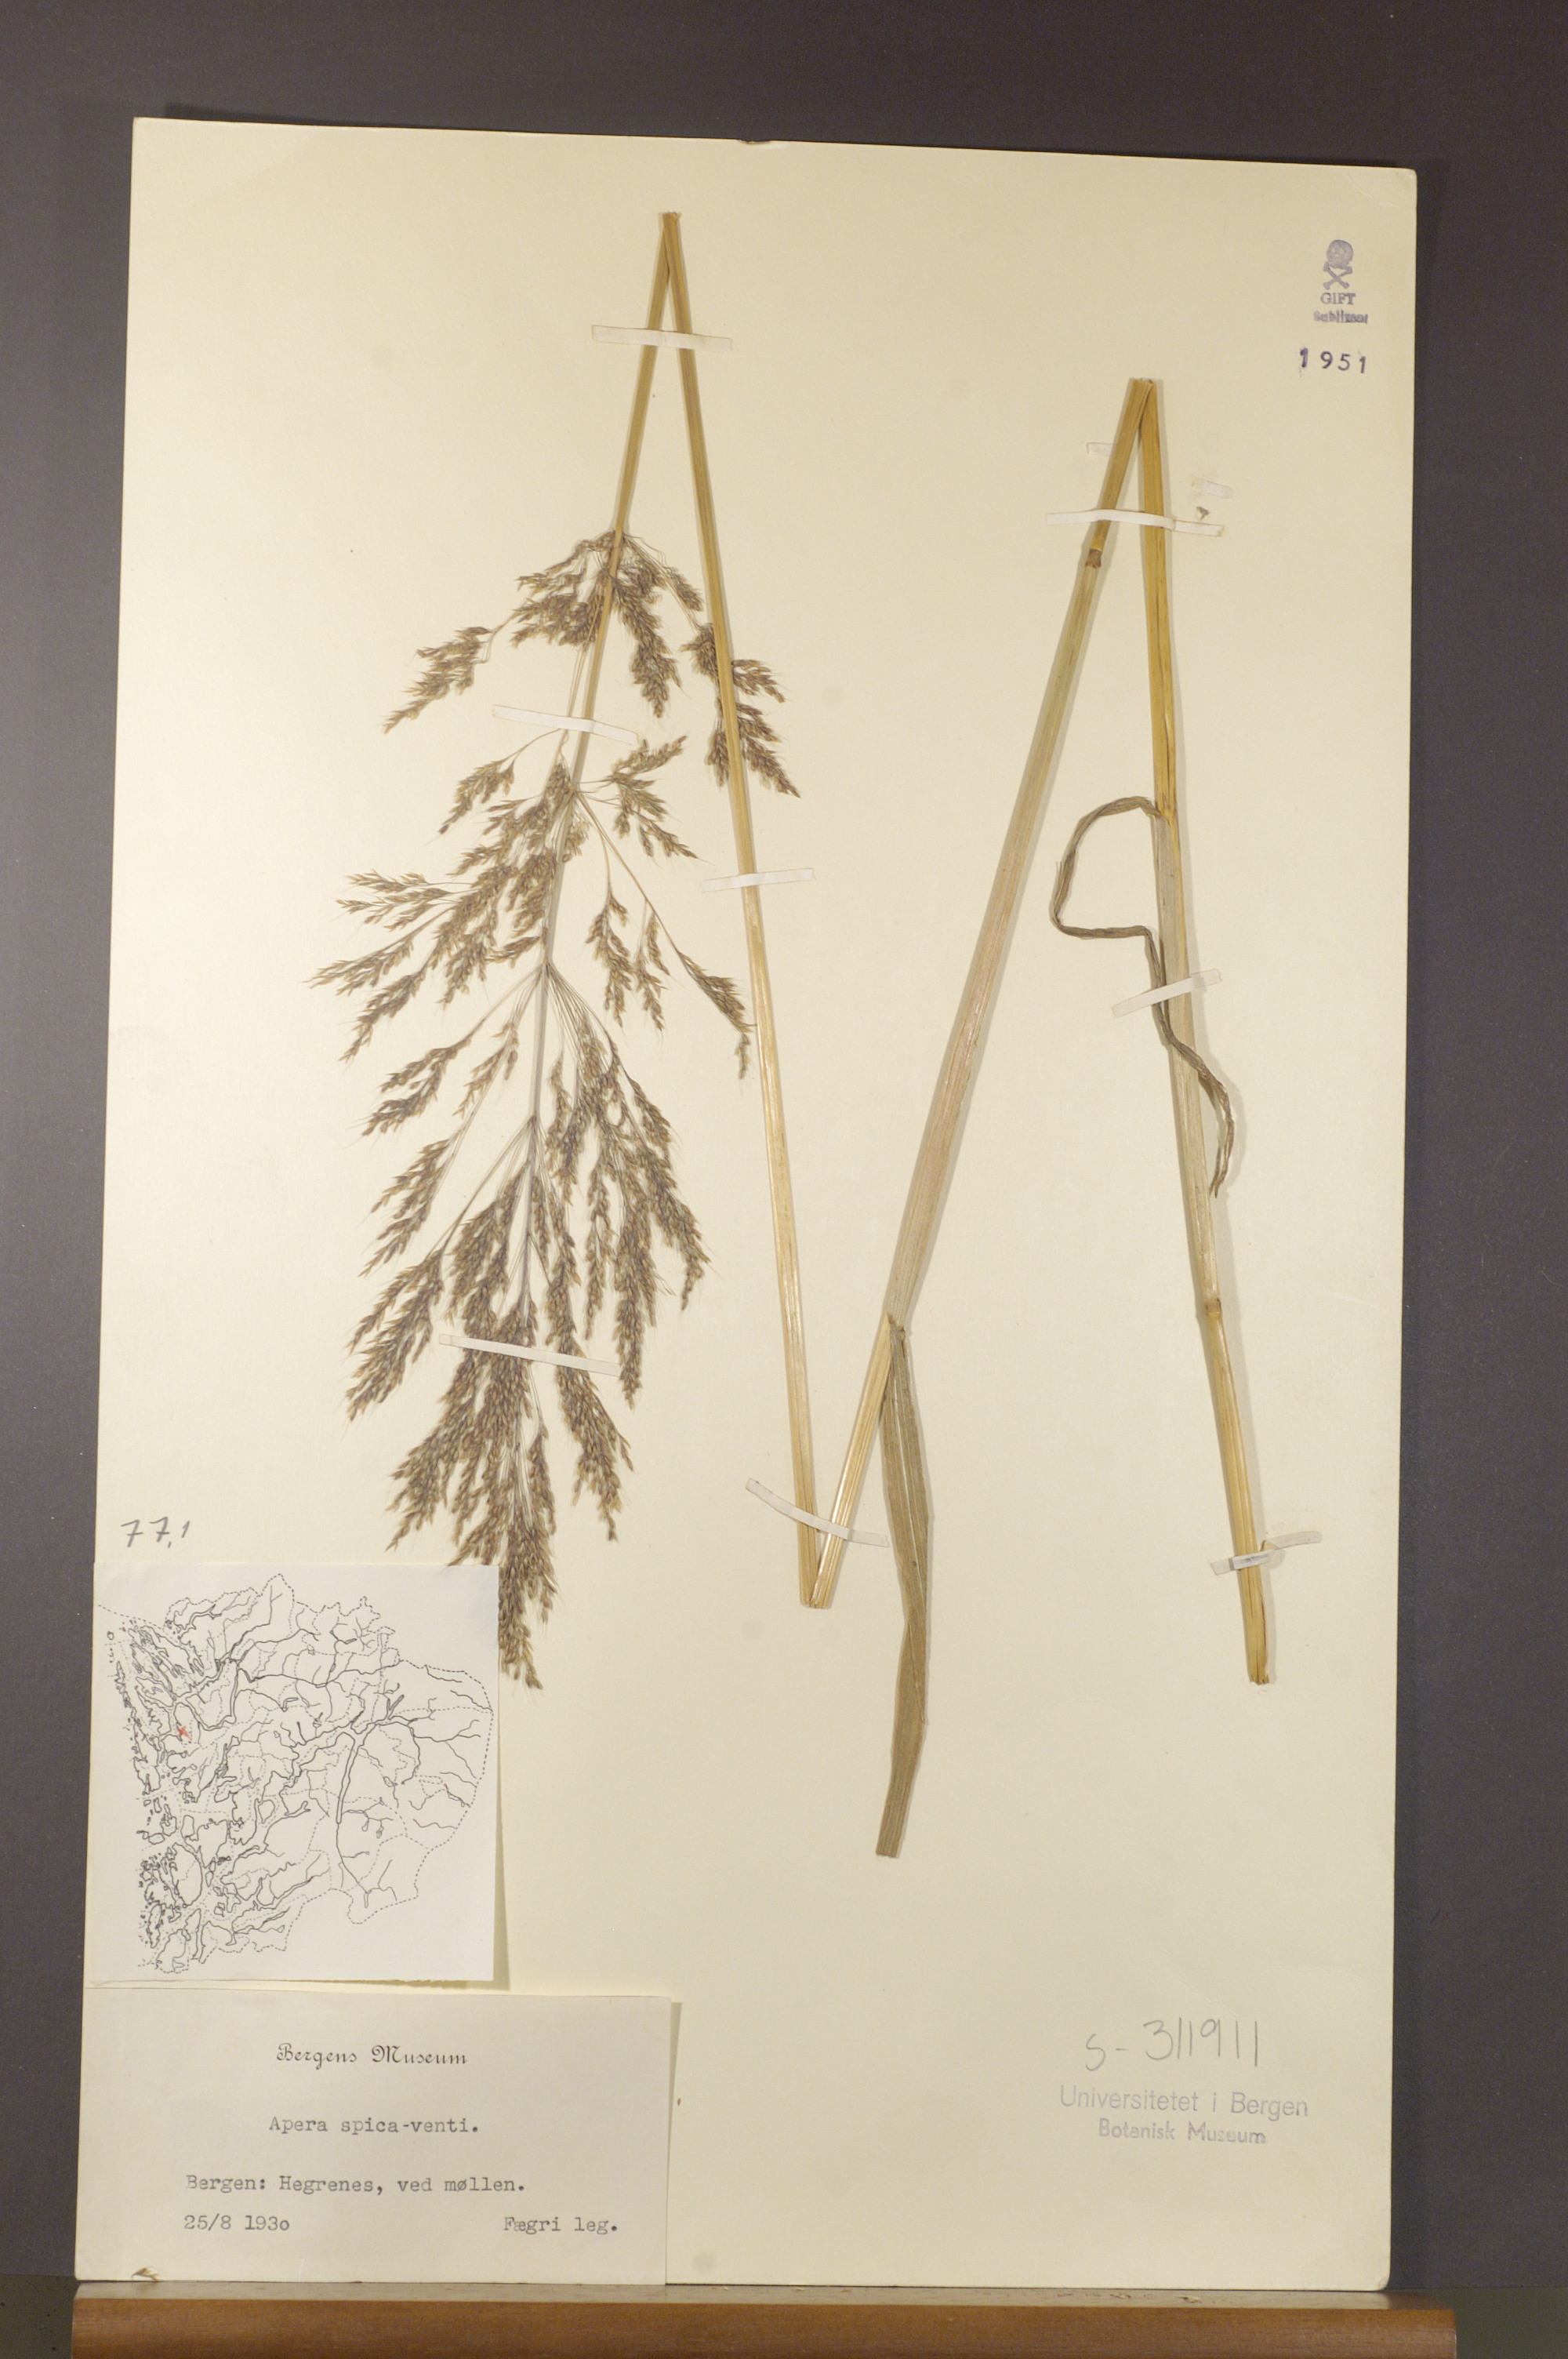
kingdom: Plantae
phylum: Tracheophyta
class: Liliopsida
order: Poales
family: Poaceae
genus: Apera
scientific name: Apera spica-venti
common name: Loose silky-bent
